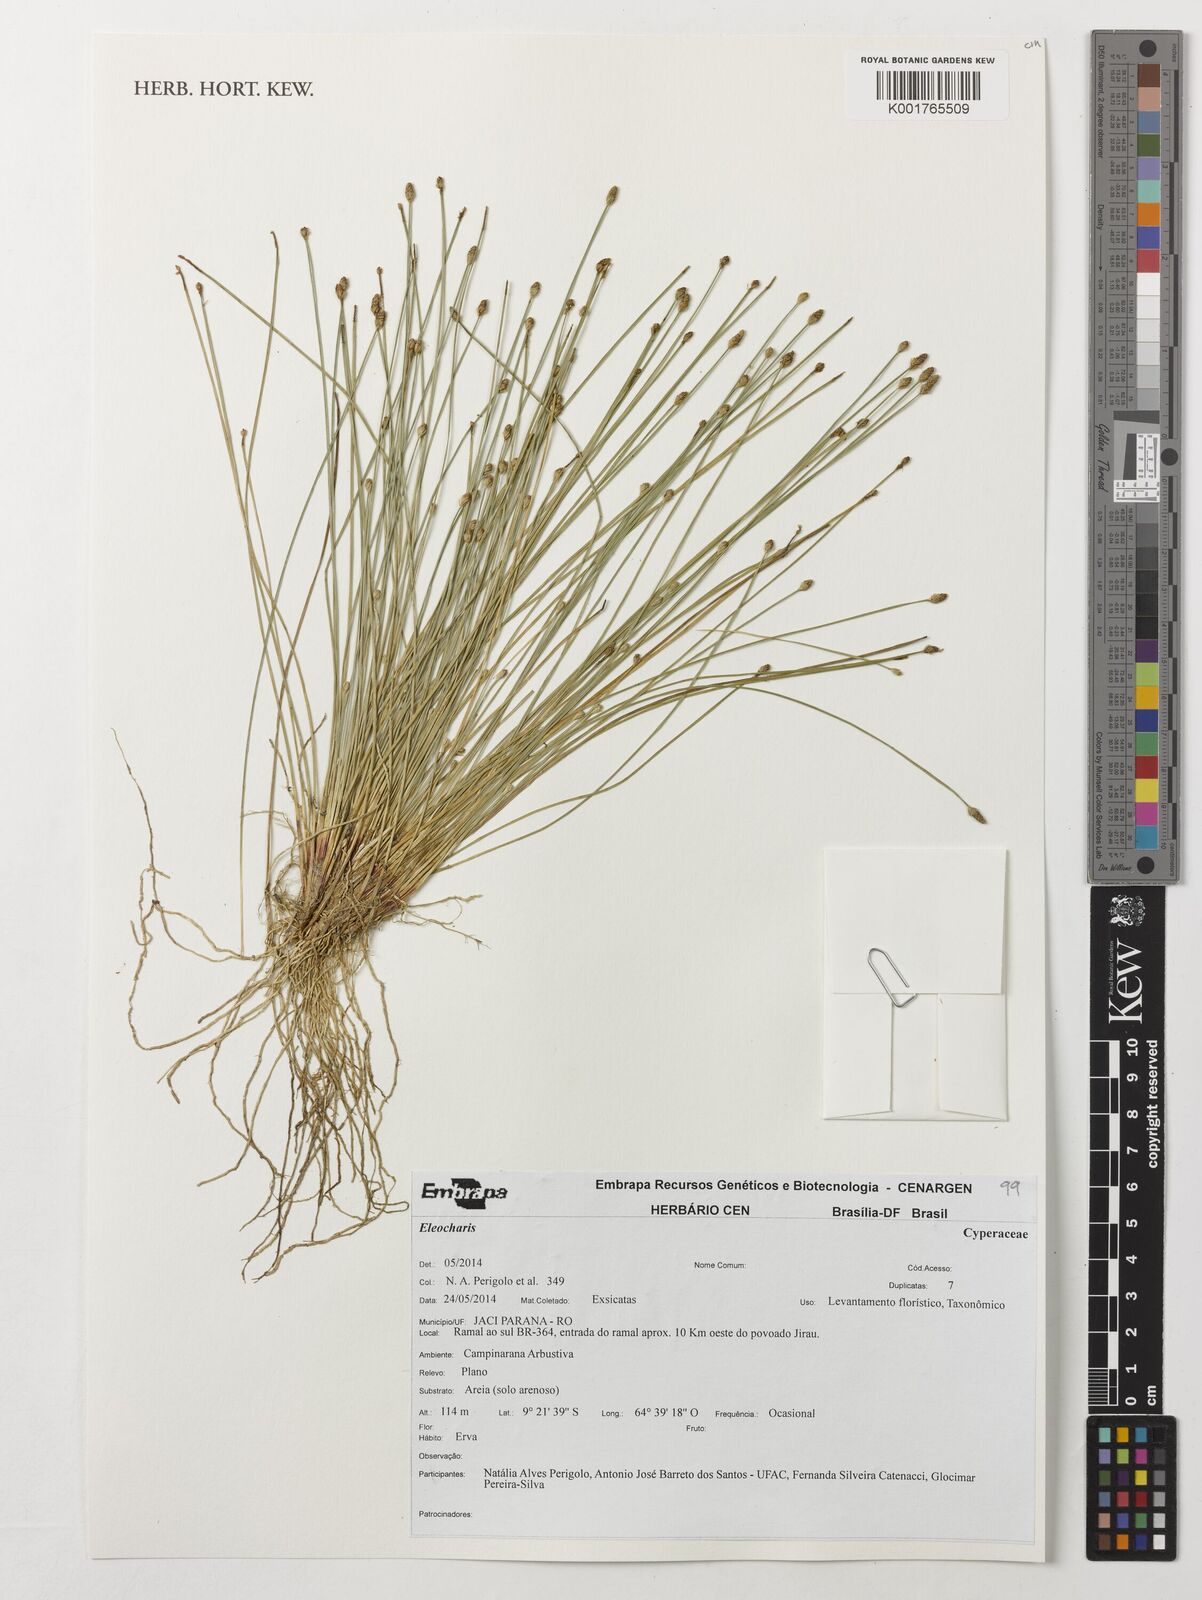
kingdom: Plantae
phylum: Tracheophyta
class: Liliopsida
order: Poales
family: Cyperaceae
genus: Eleocharis
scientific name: Eleocharis
